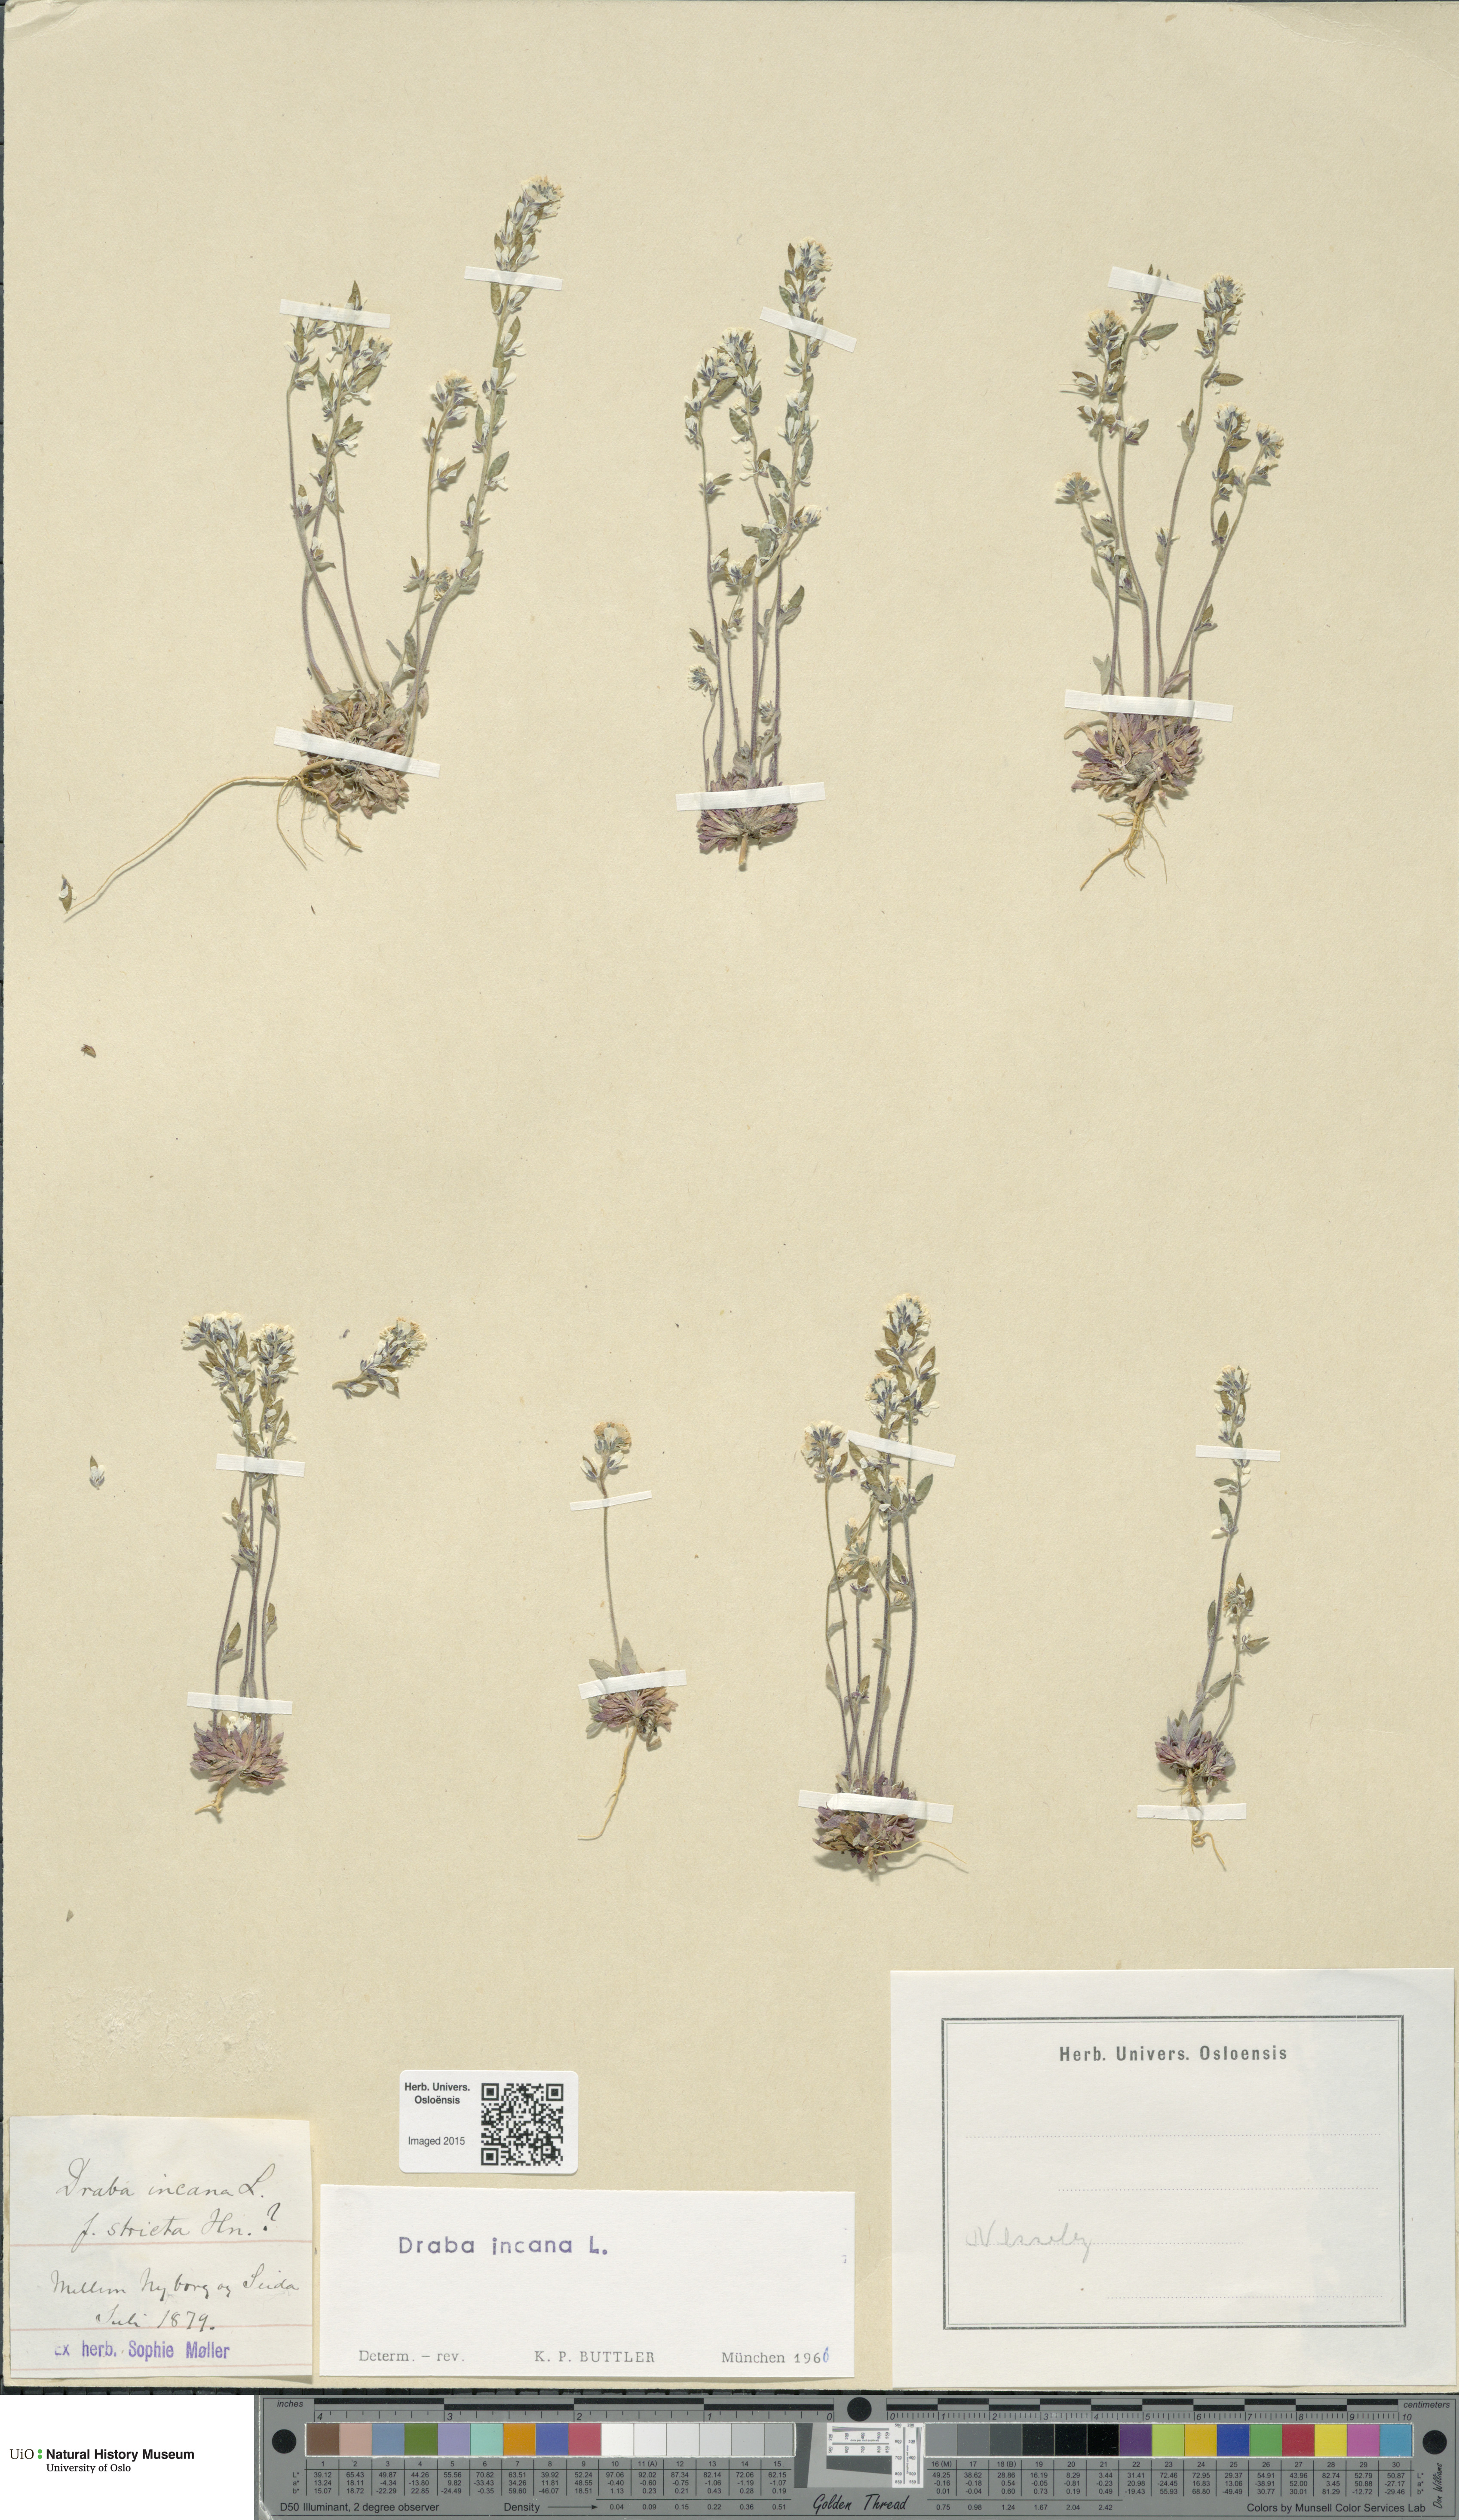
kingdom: Plantae
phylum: Tracheophyta
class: Magnoliopsida
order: Brassicales
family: Brassicaceae
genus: Draba
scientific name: Draba incana
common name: Hoary whitlow-grass
